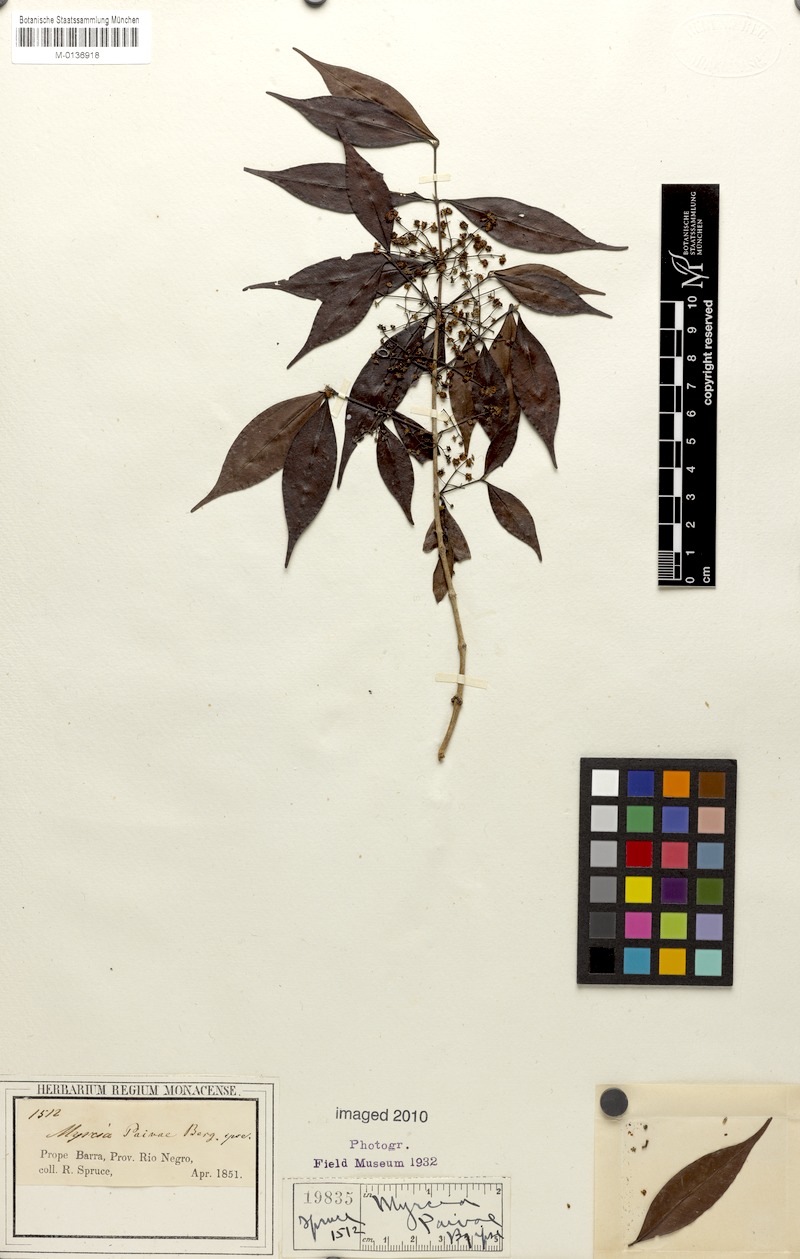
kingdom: Plantae
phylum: Tracheophyta
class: Magnoliopsida
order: Myrtales
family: Myrtaceae
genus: Myrcia
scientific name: Myrcia paivae
